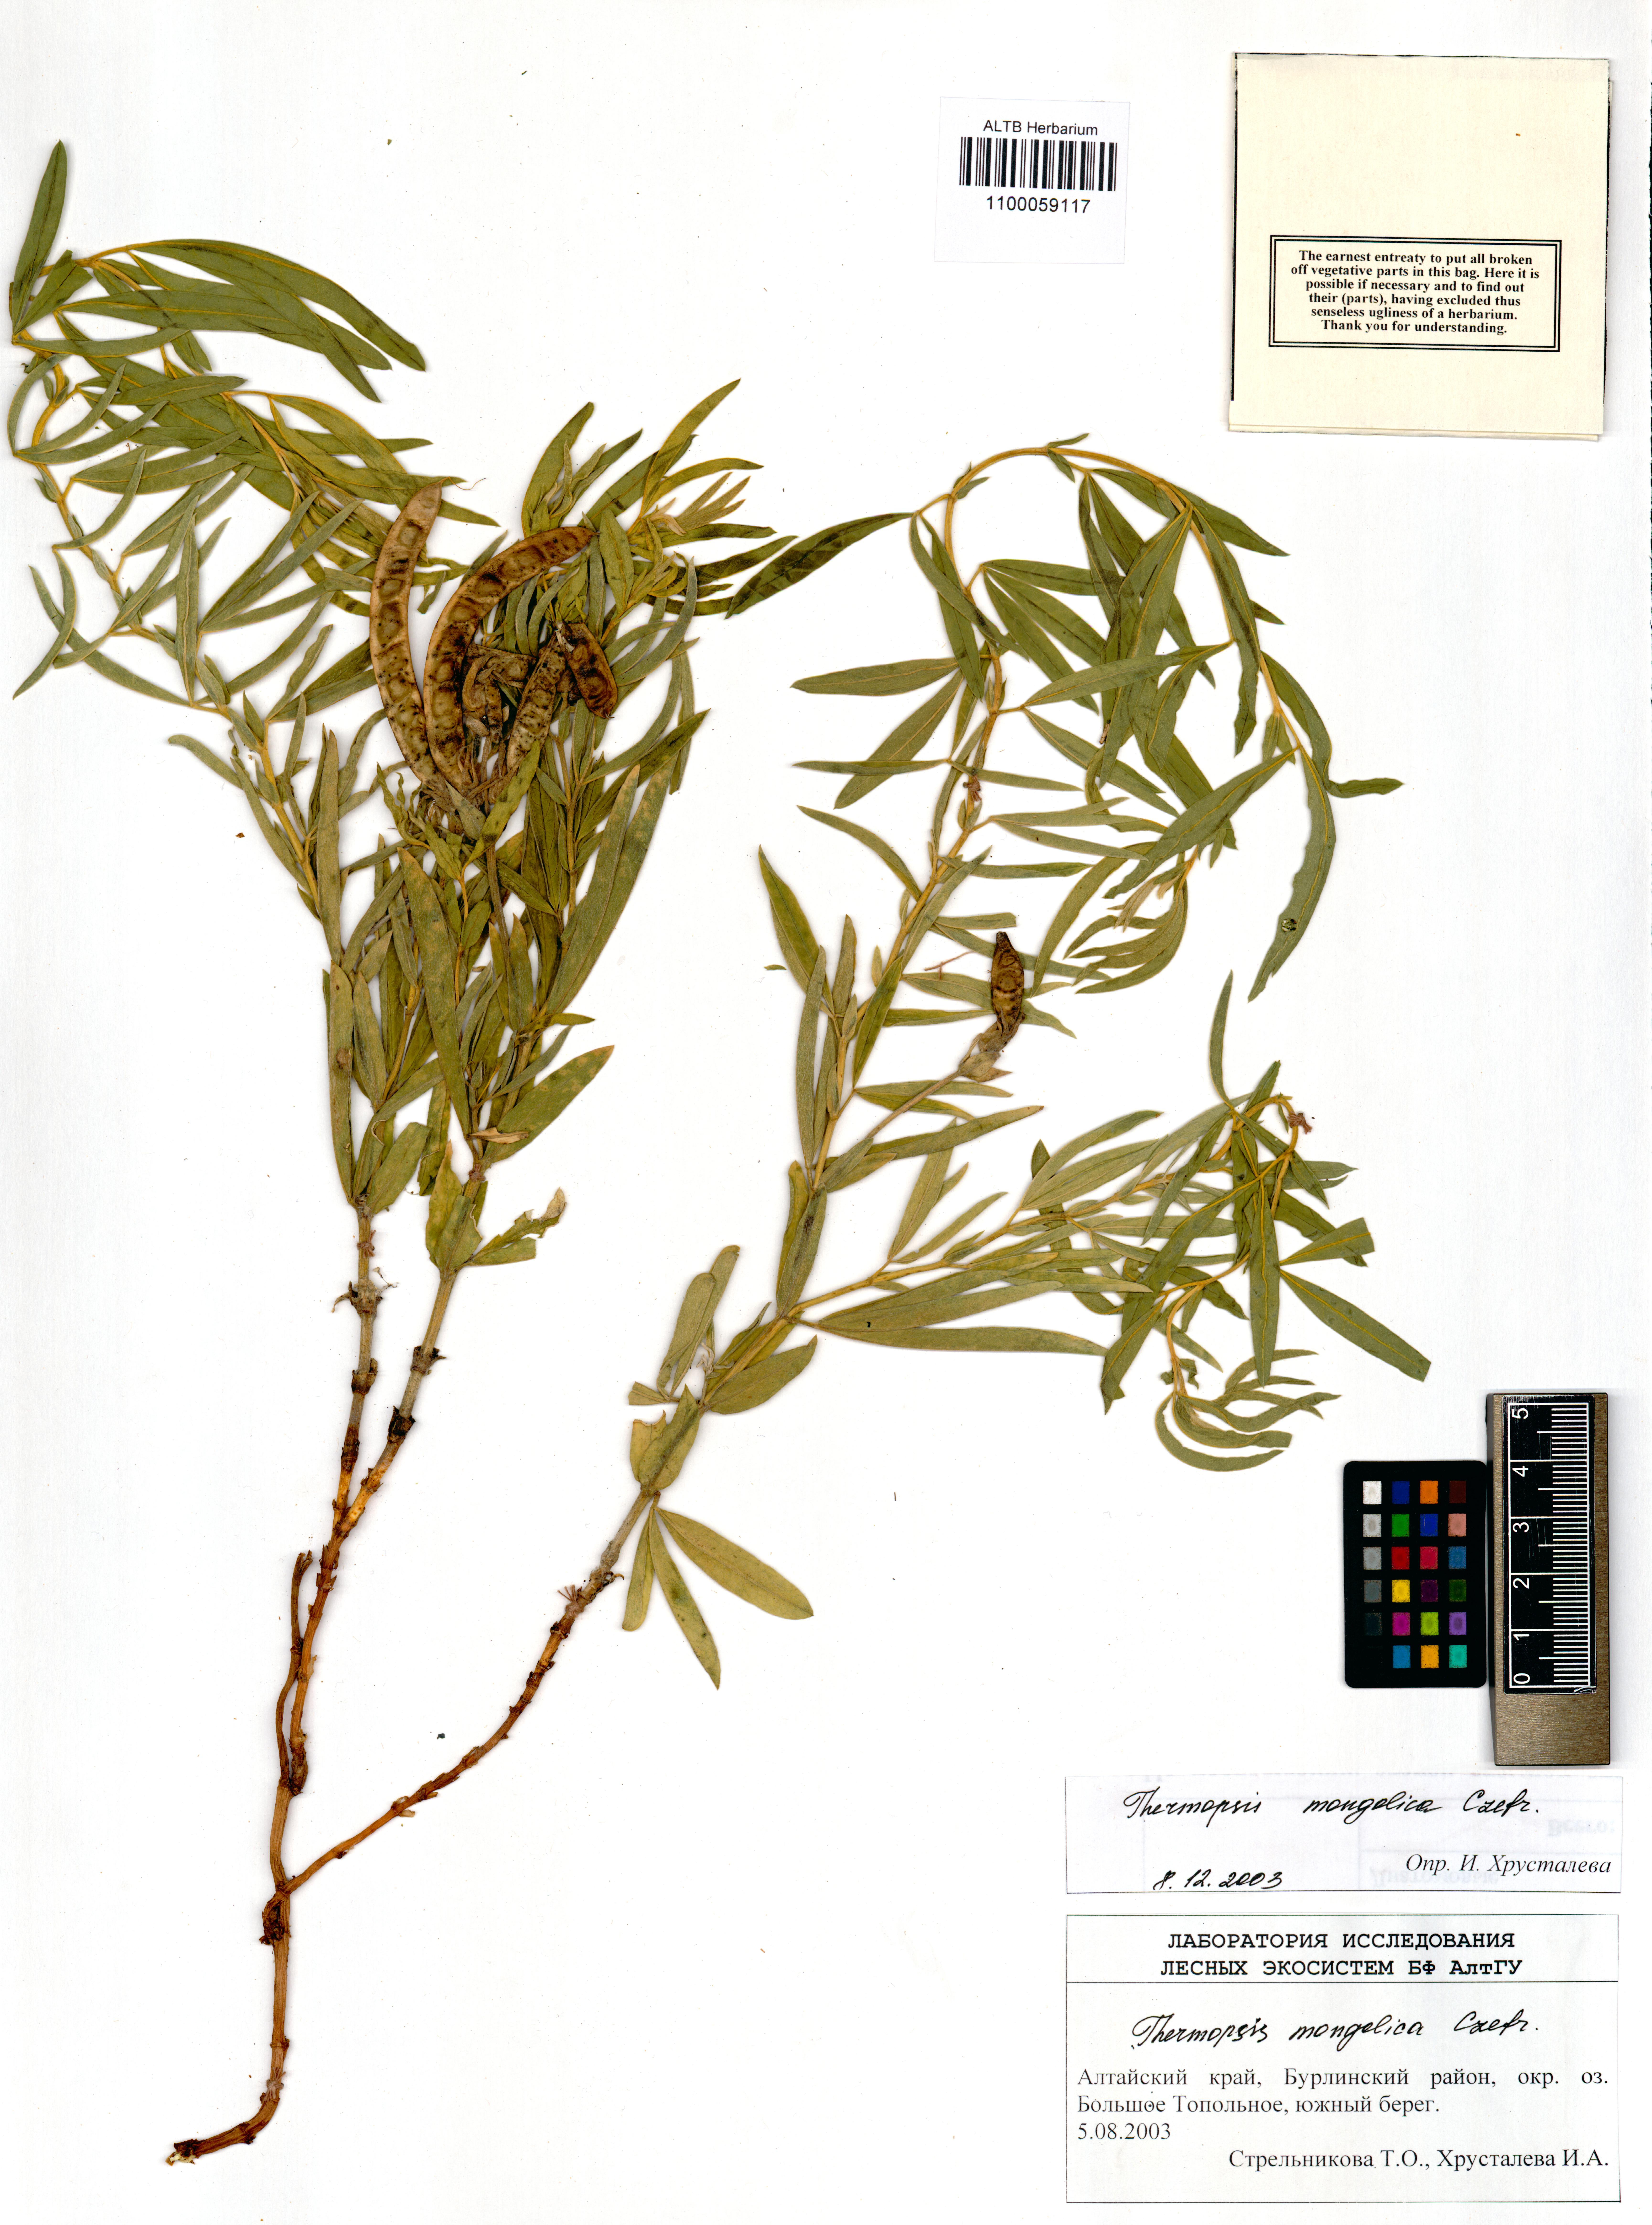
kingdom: Plantae
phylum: Tracheophyta
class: Magnoliopsida
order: Fabales
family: Fabaceae
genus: Thermopsis
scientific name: Thermopsis mongolica
